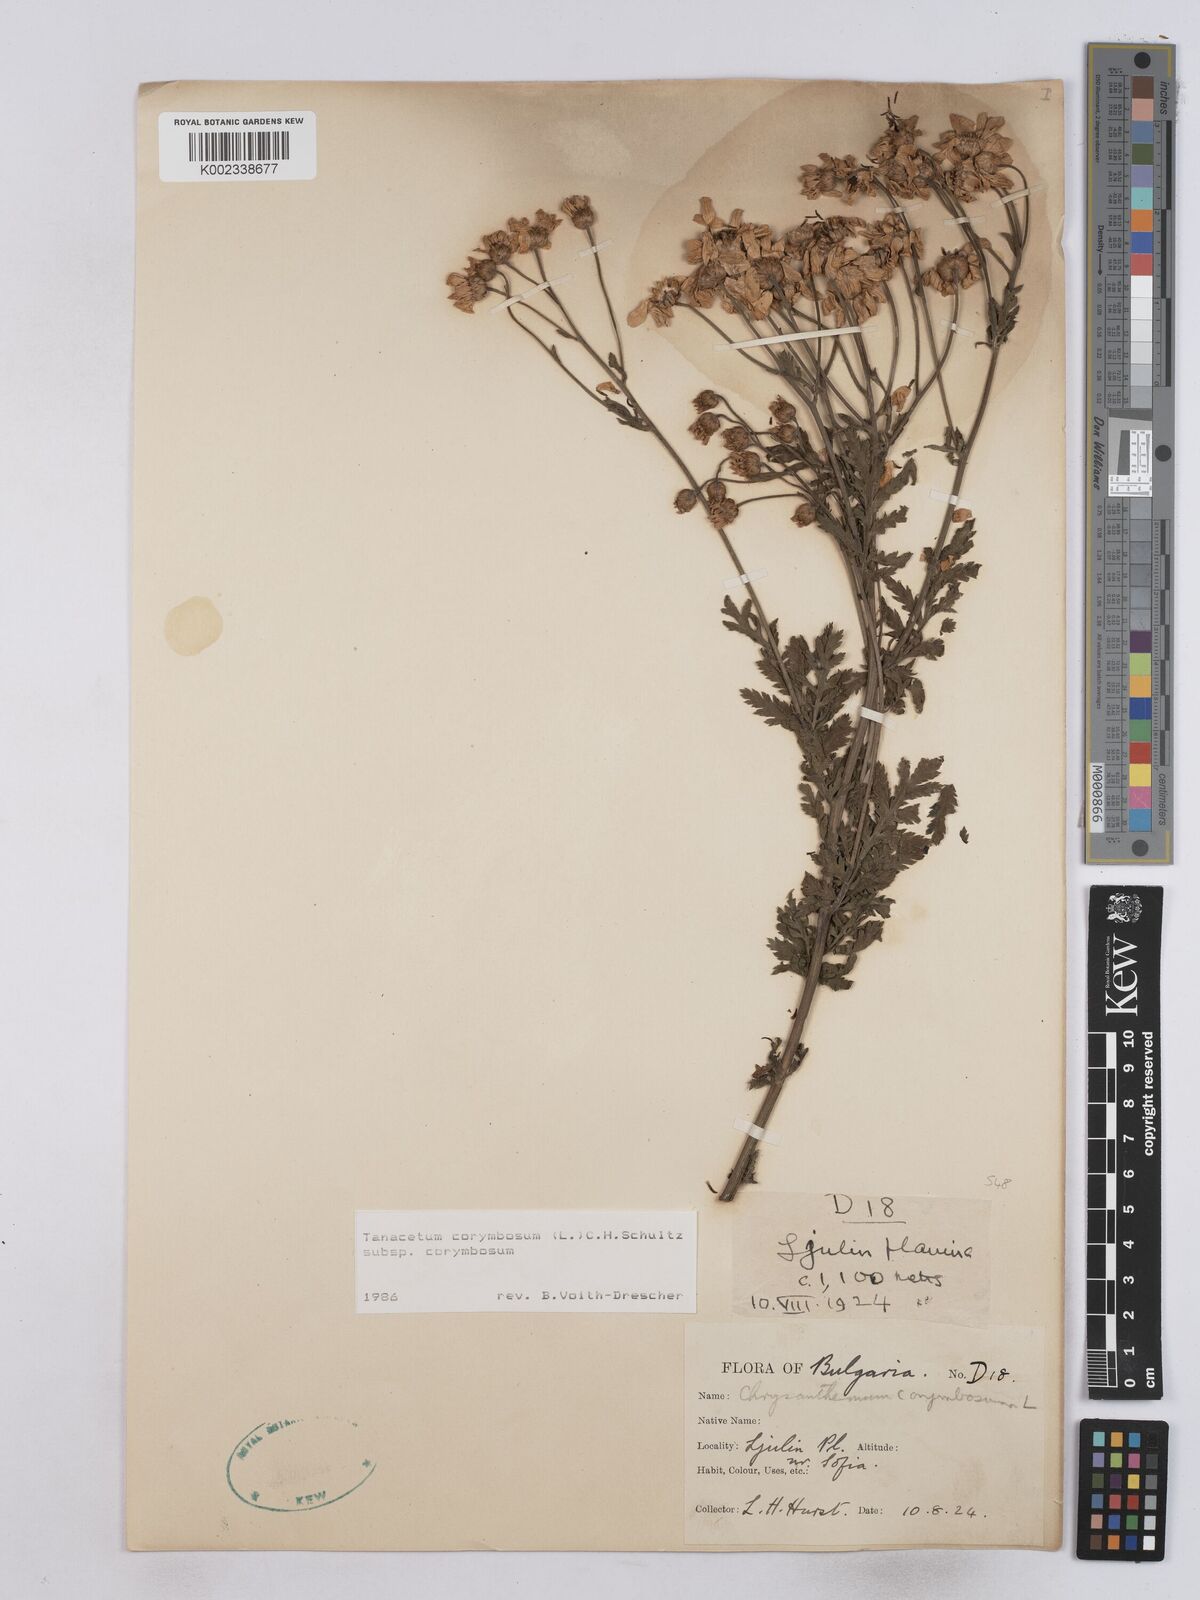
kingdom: Plantae
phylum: Tracheophyta
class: Magnoliopsida
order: Asterales
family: Asteraceae
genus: Tanacetum
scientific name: Tanacetum corymbosum
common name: Scentless feverfew
